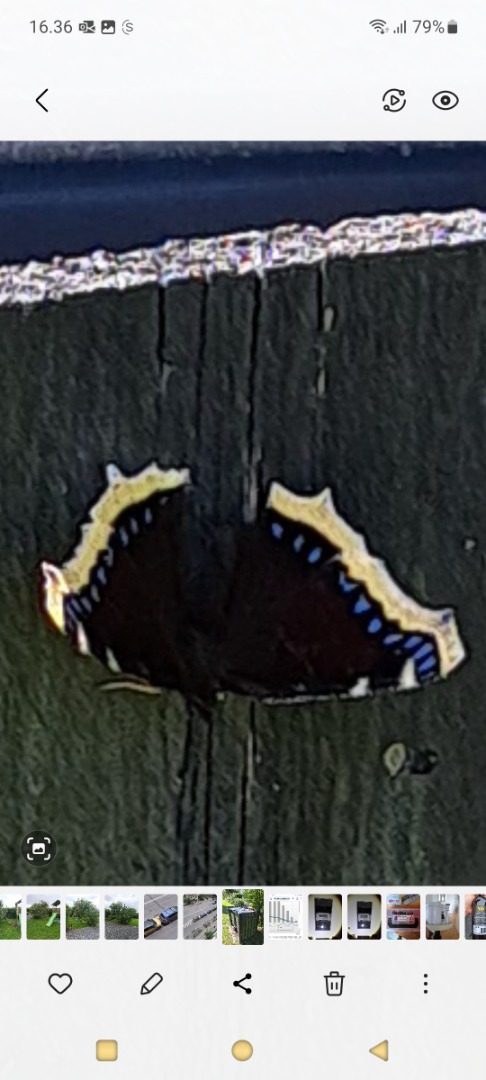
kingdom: Animalia
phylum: Arthropoda
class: Insecta
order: Lepidoptera
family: Nymphalidae
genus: Nymphalis
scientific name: Nymphalis antiopa
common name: Sørgekåbe
